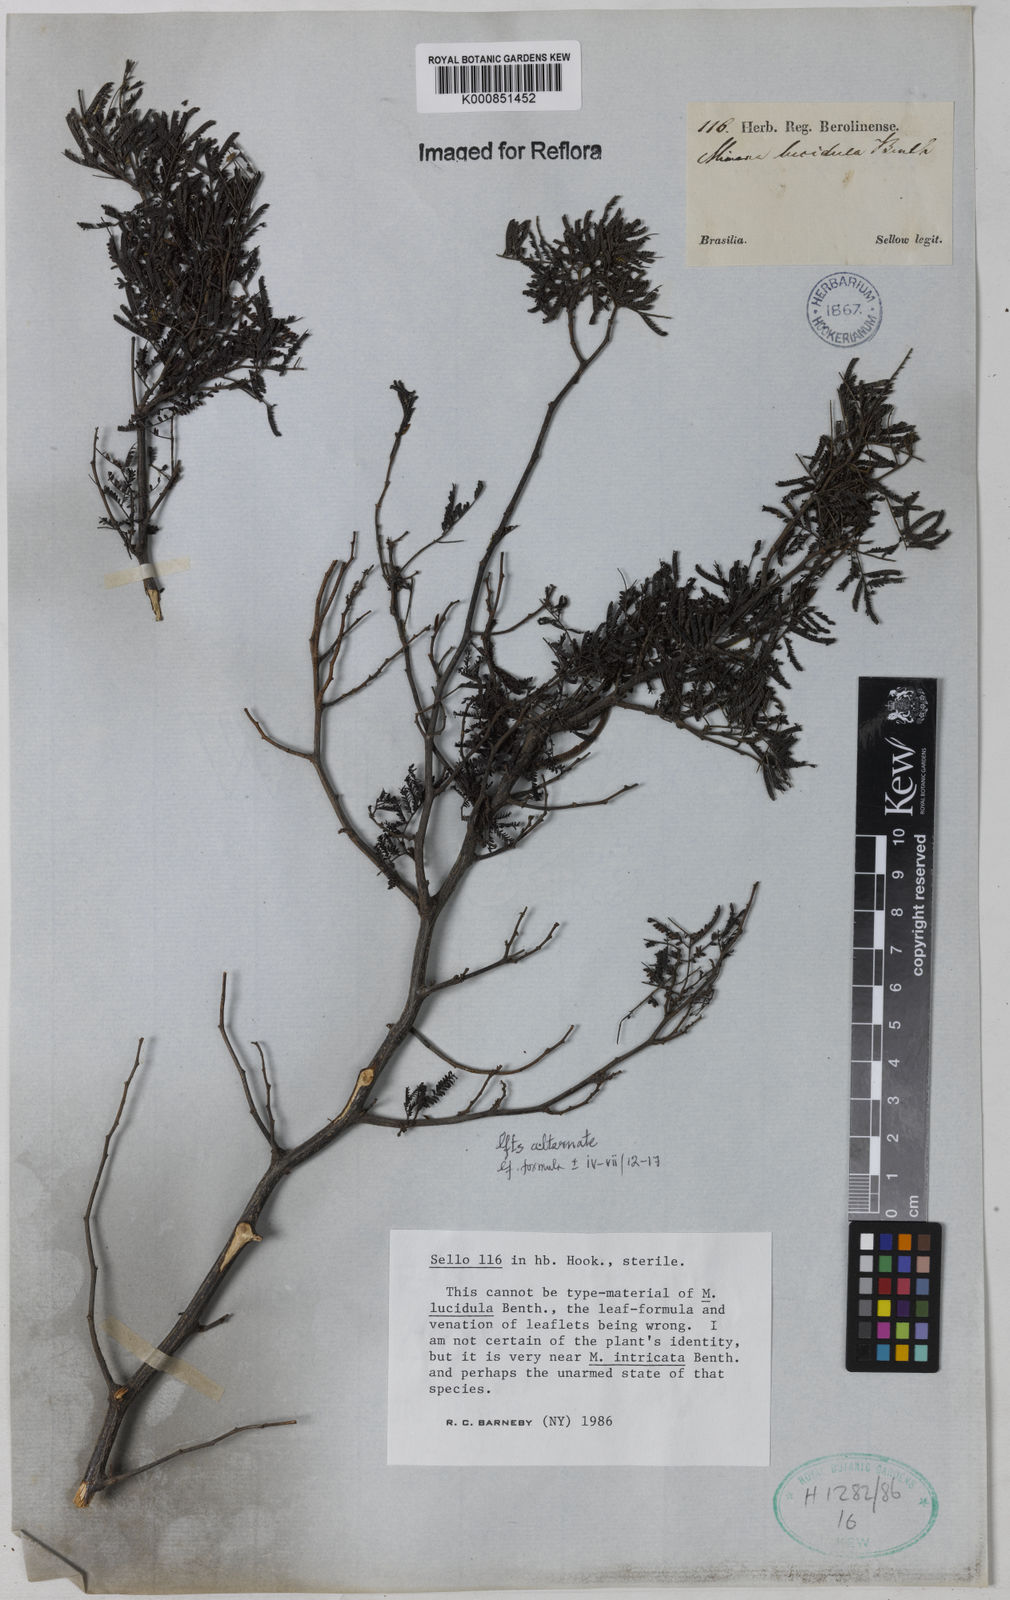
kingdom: Plantae
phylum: Tracheophyta
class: Magnoliopsida
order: Fabales
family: Fabaceae
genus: Mimosa
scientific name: Mimosa intricata
